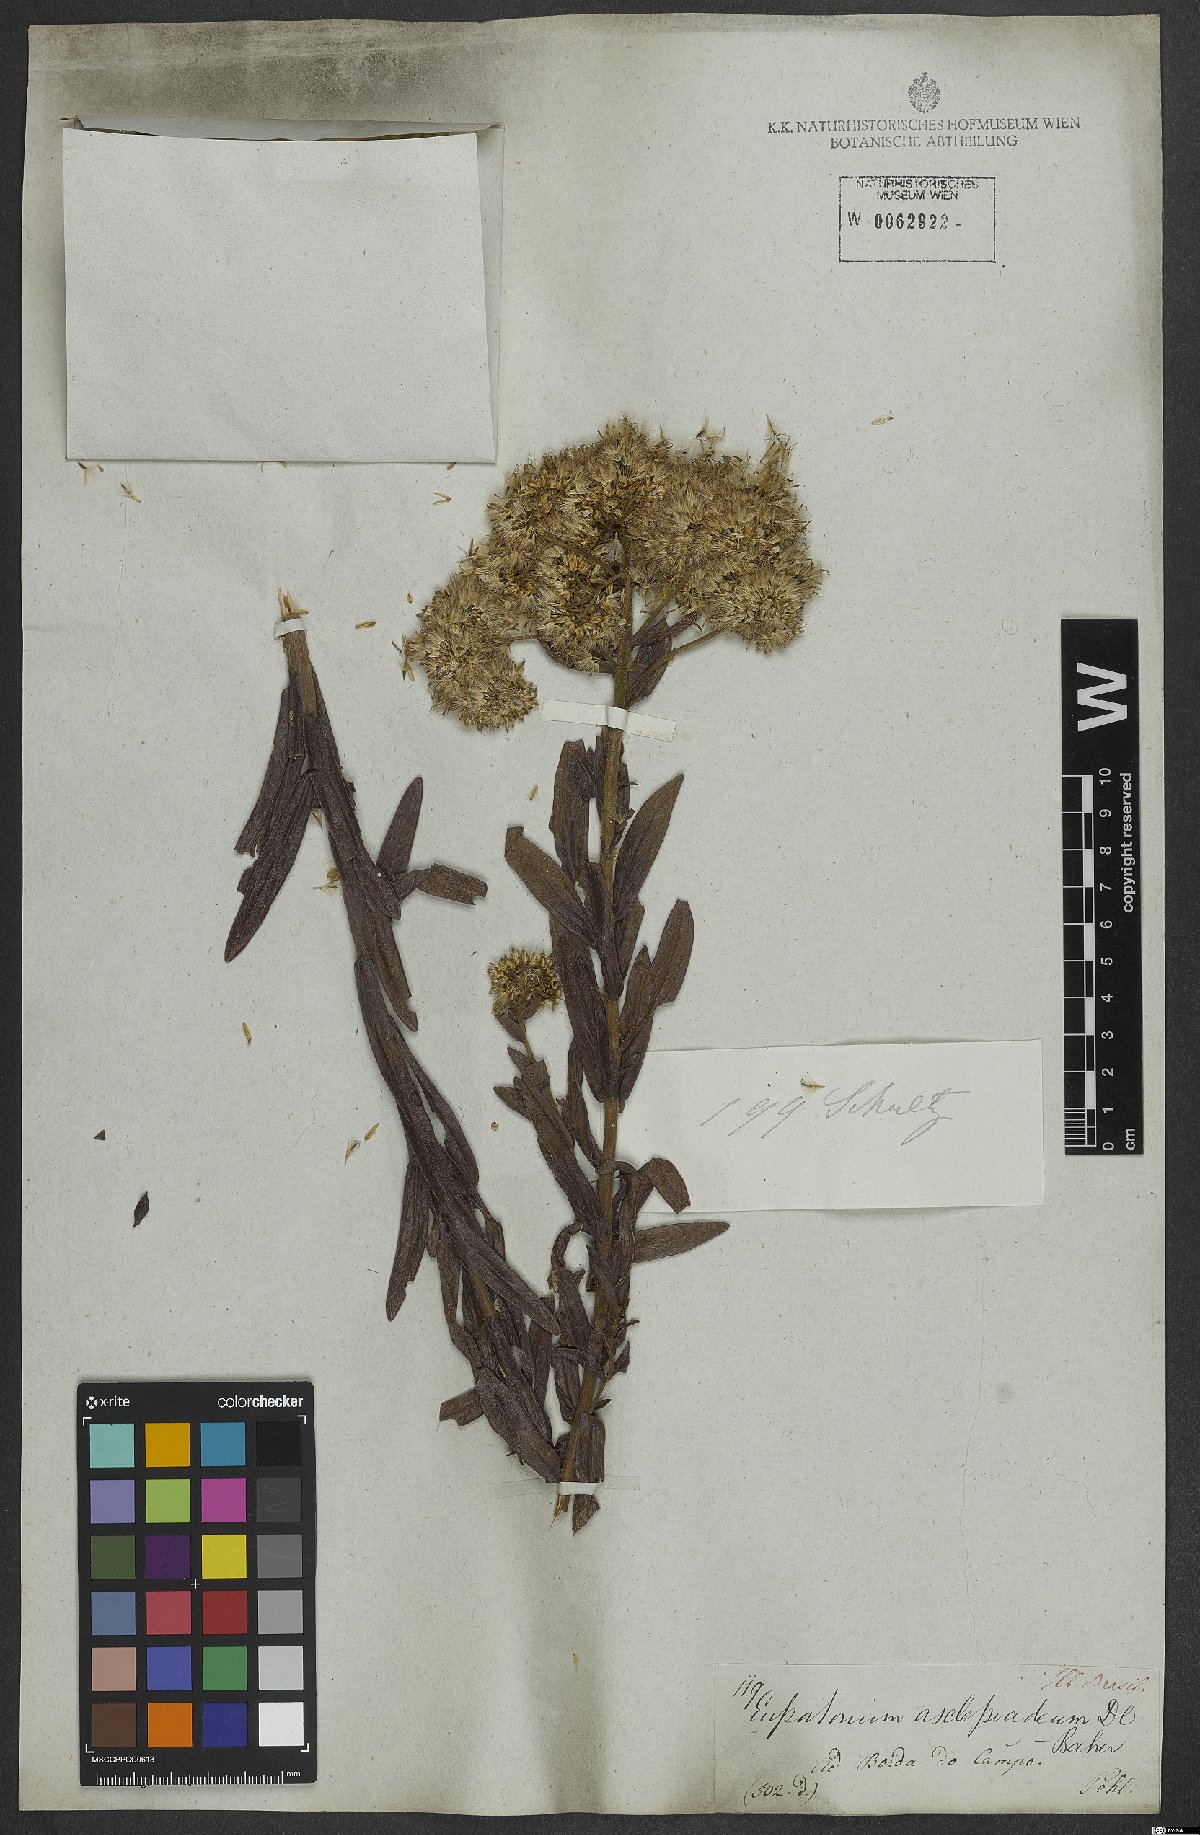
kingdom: Plantae
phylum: Tracheophyta
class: Magnoliopsida
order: Asterales
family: Asteraceae
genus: Campovassouria
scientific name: Campovassouria cruciata
